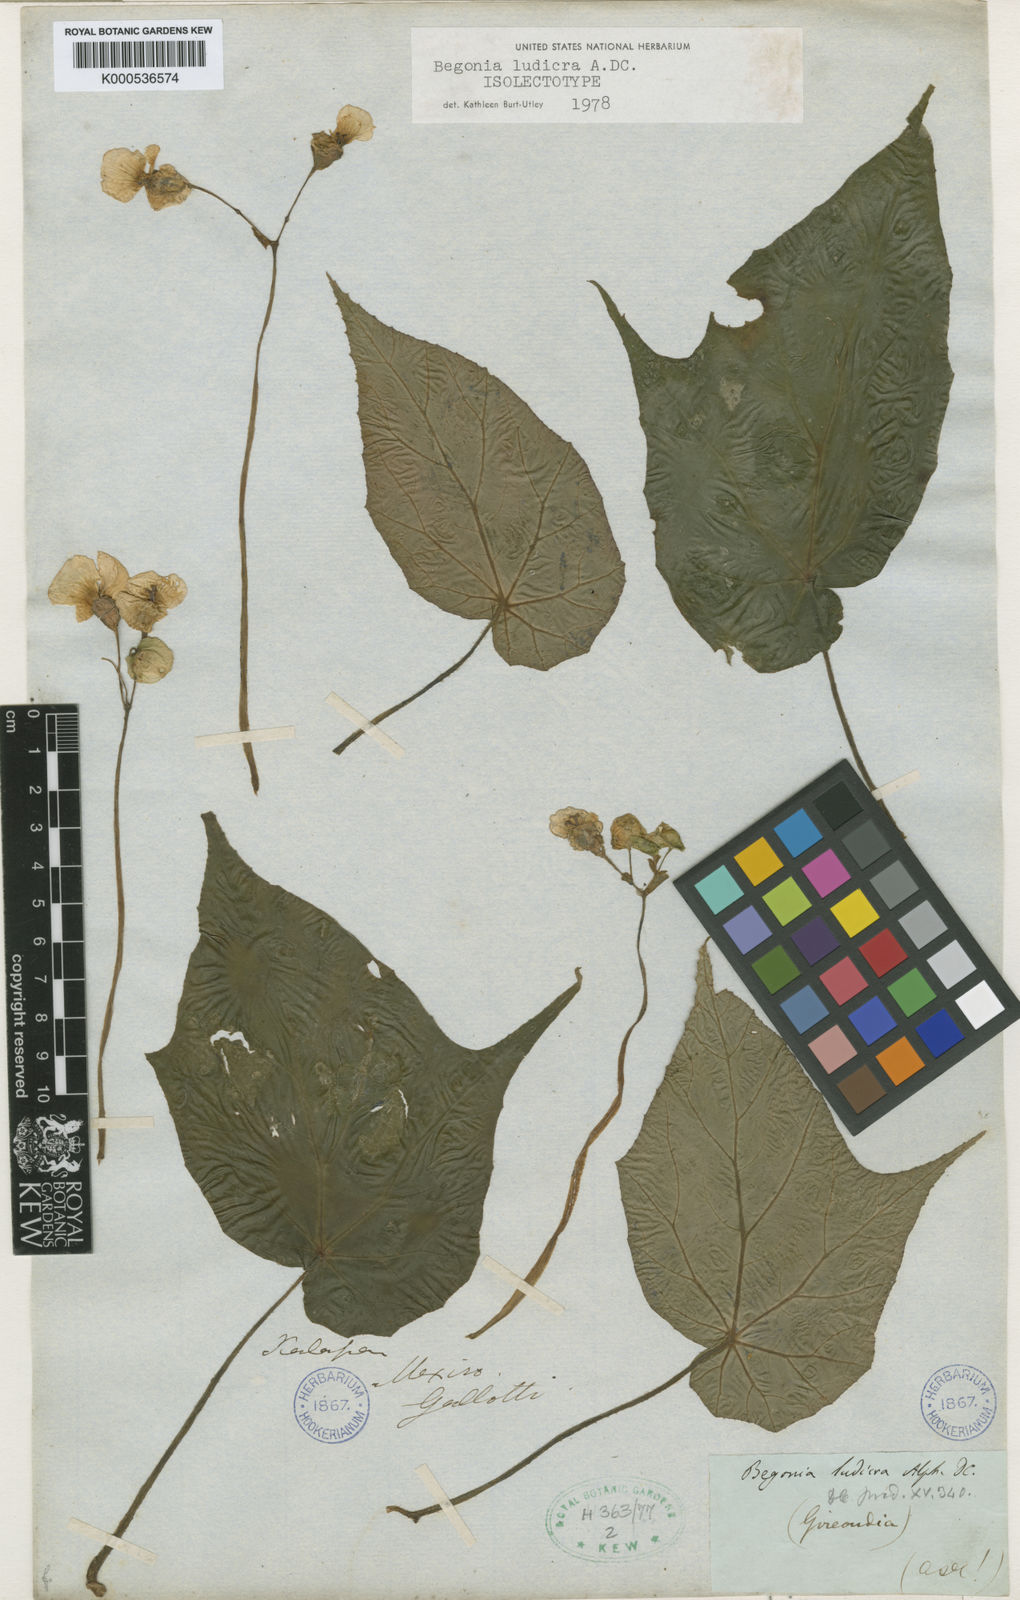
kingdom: Plantae
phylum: Tracheophyta
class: Magnoliopsida
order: Cucurbitales
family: Begoniaceae
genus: Begonia
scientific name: Begonia ludicra
